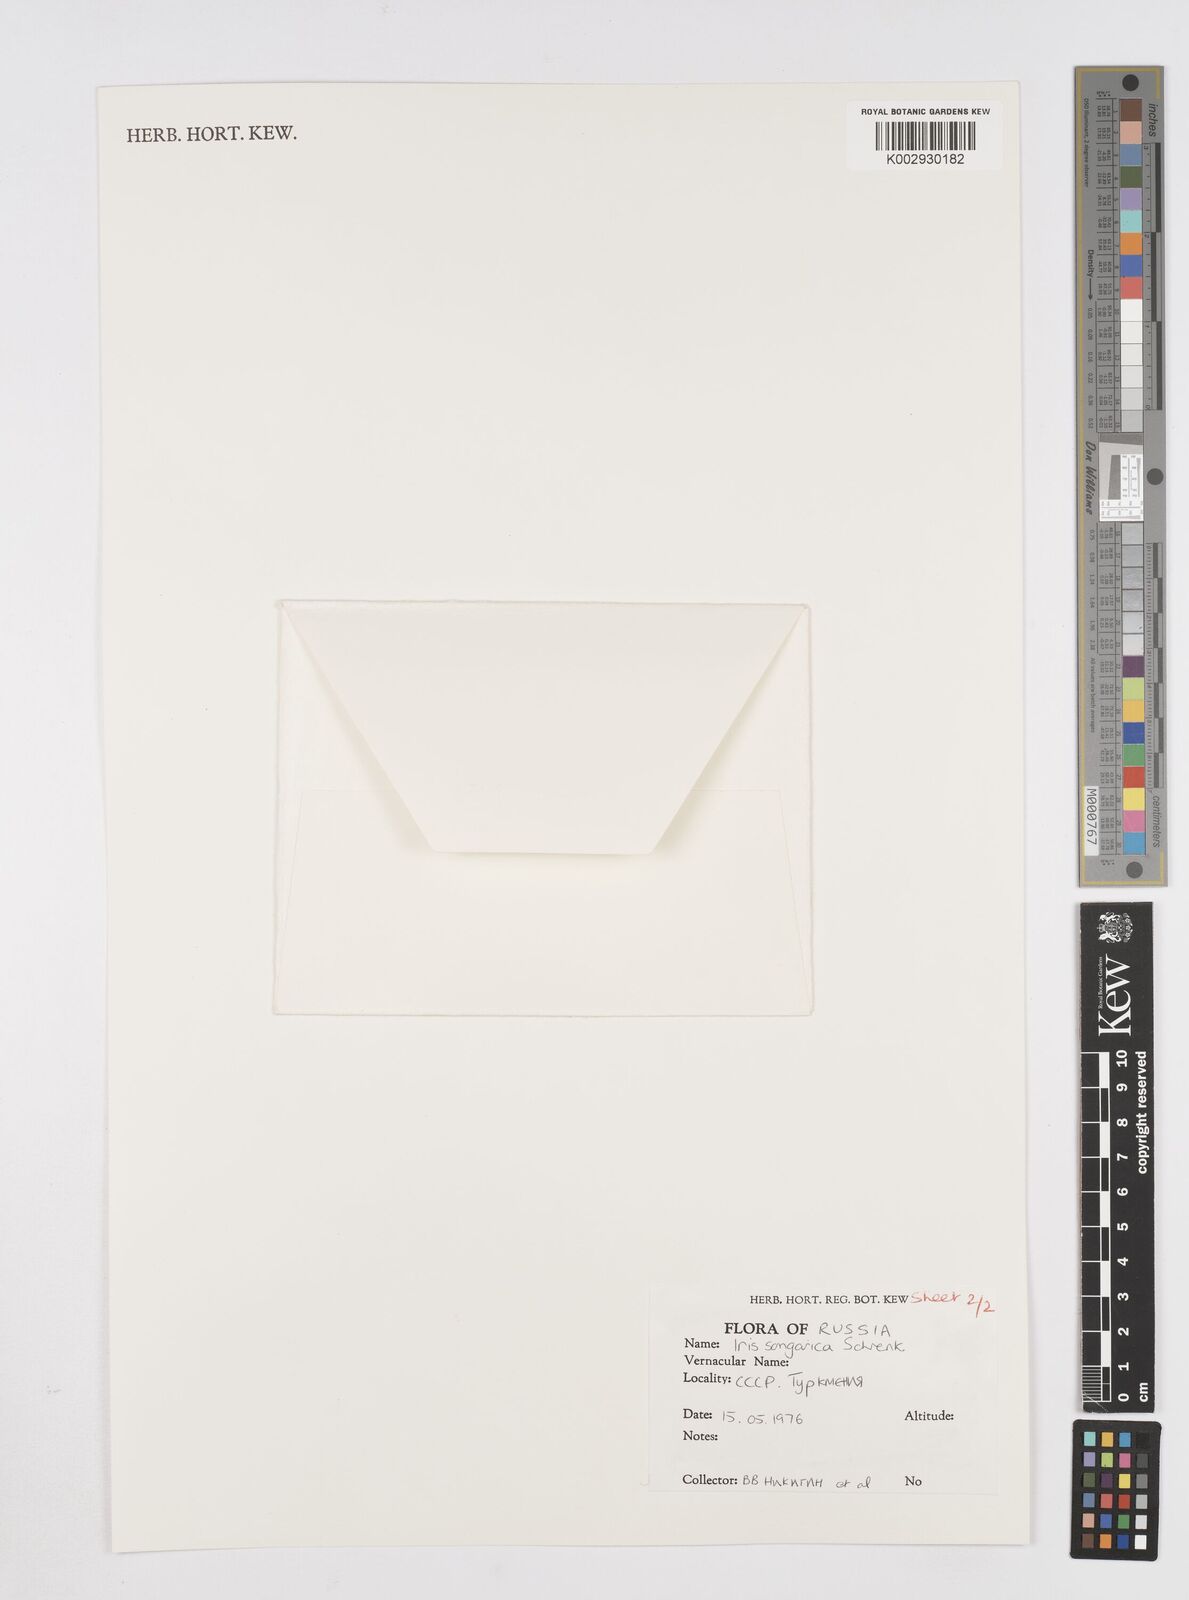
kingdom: Plantae
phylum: Tracheophyta
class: Liliopsida
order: Asparagales
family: Iridaceae
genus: Iris
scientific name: Iris songarica
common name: Songar iris
